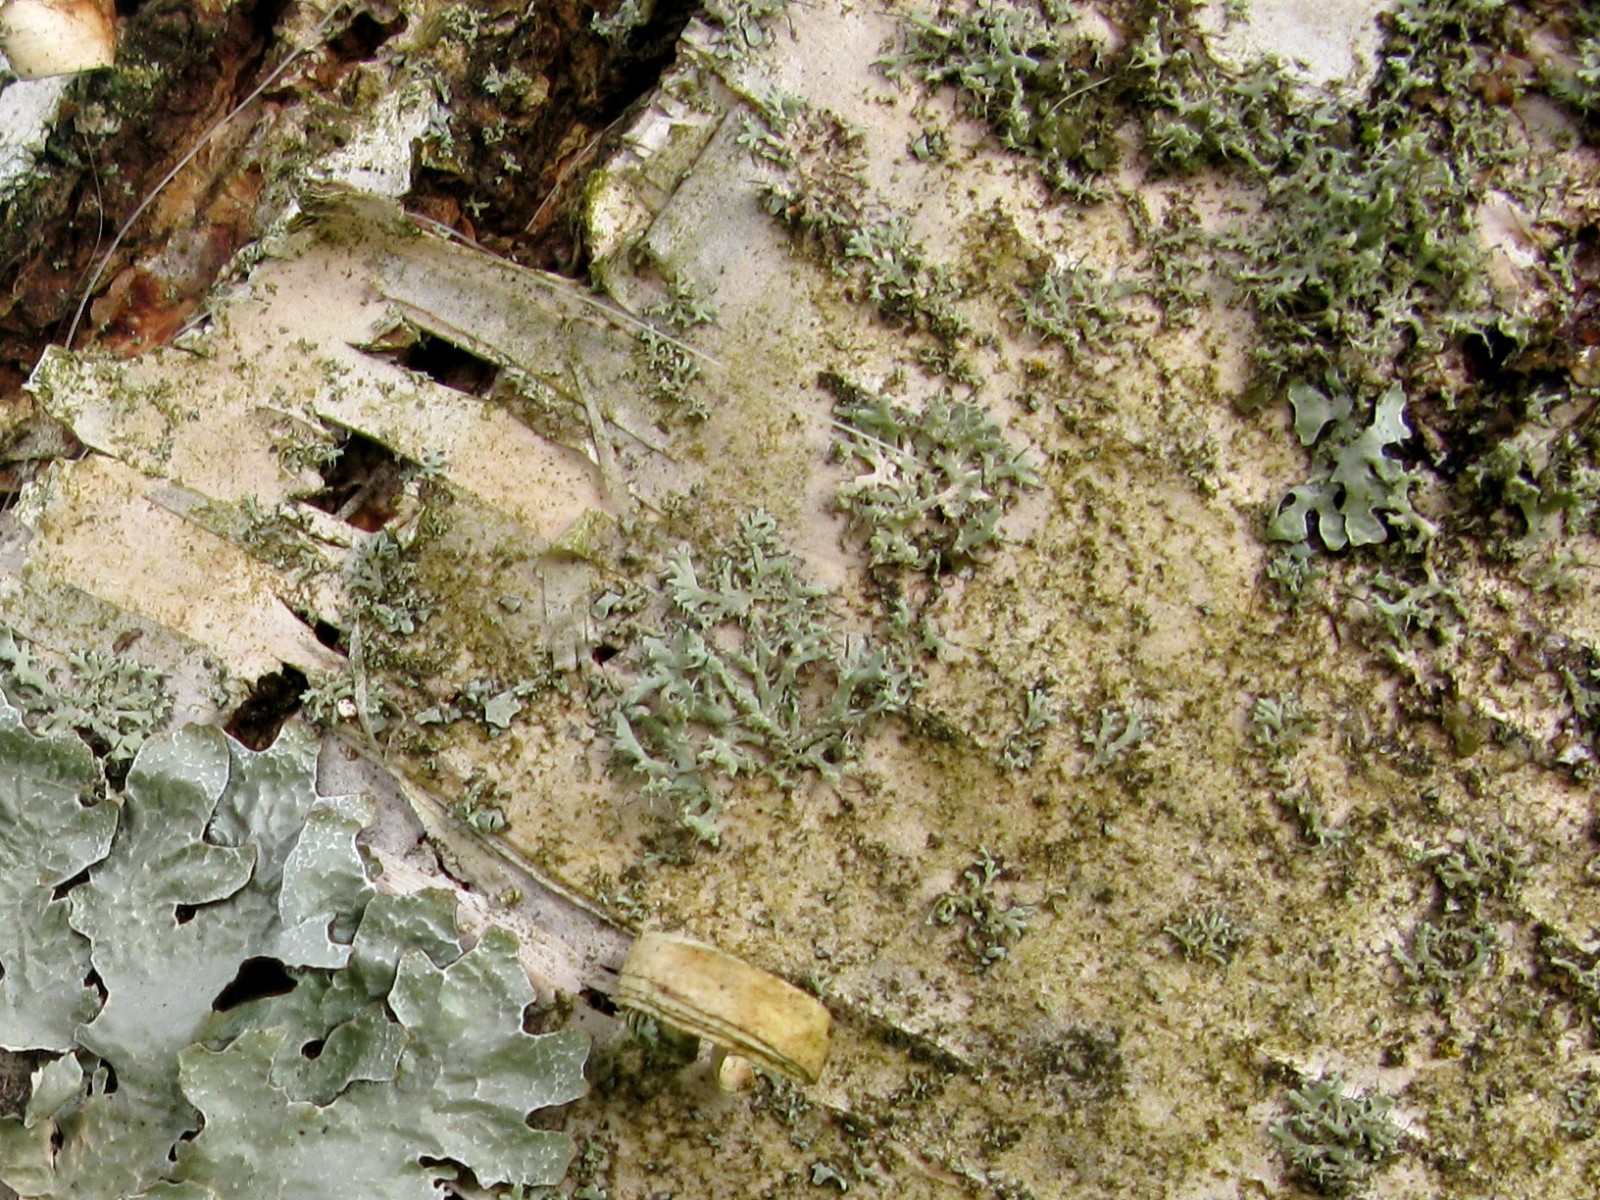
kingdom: Fungi
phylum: Ascomycota
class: Lecanoromycetes
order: Caliciales
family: Physciaceae
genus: Physcia
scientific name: Physcia tenella
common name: spæd rosetlav
